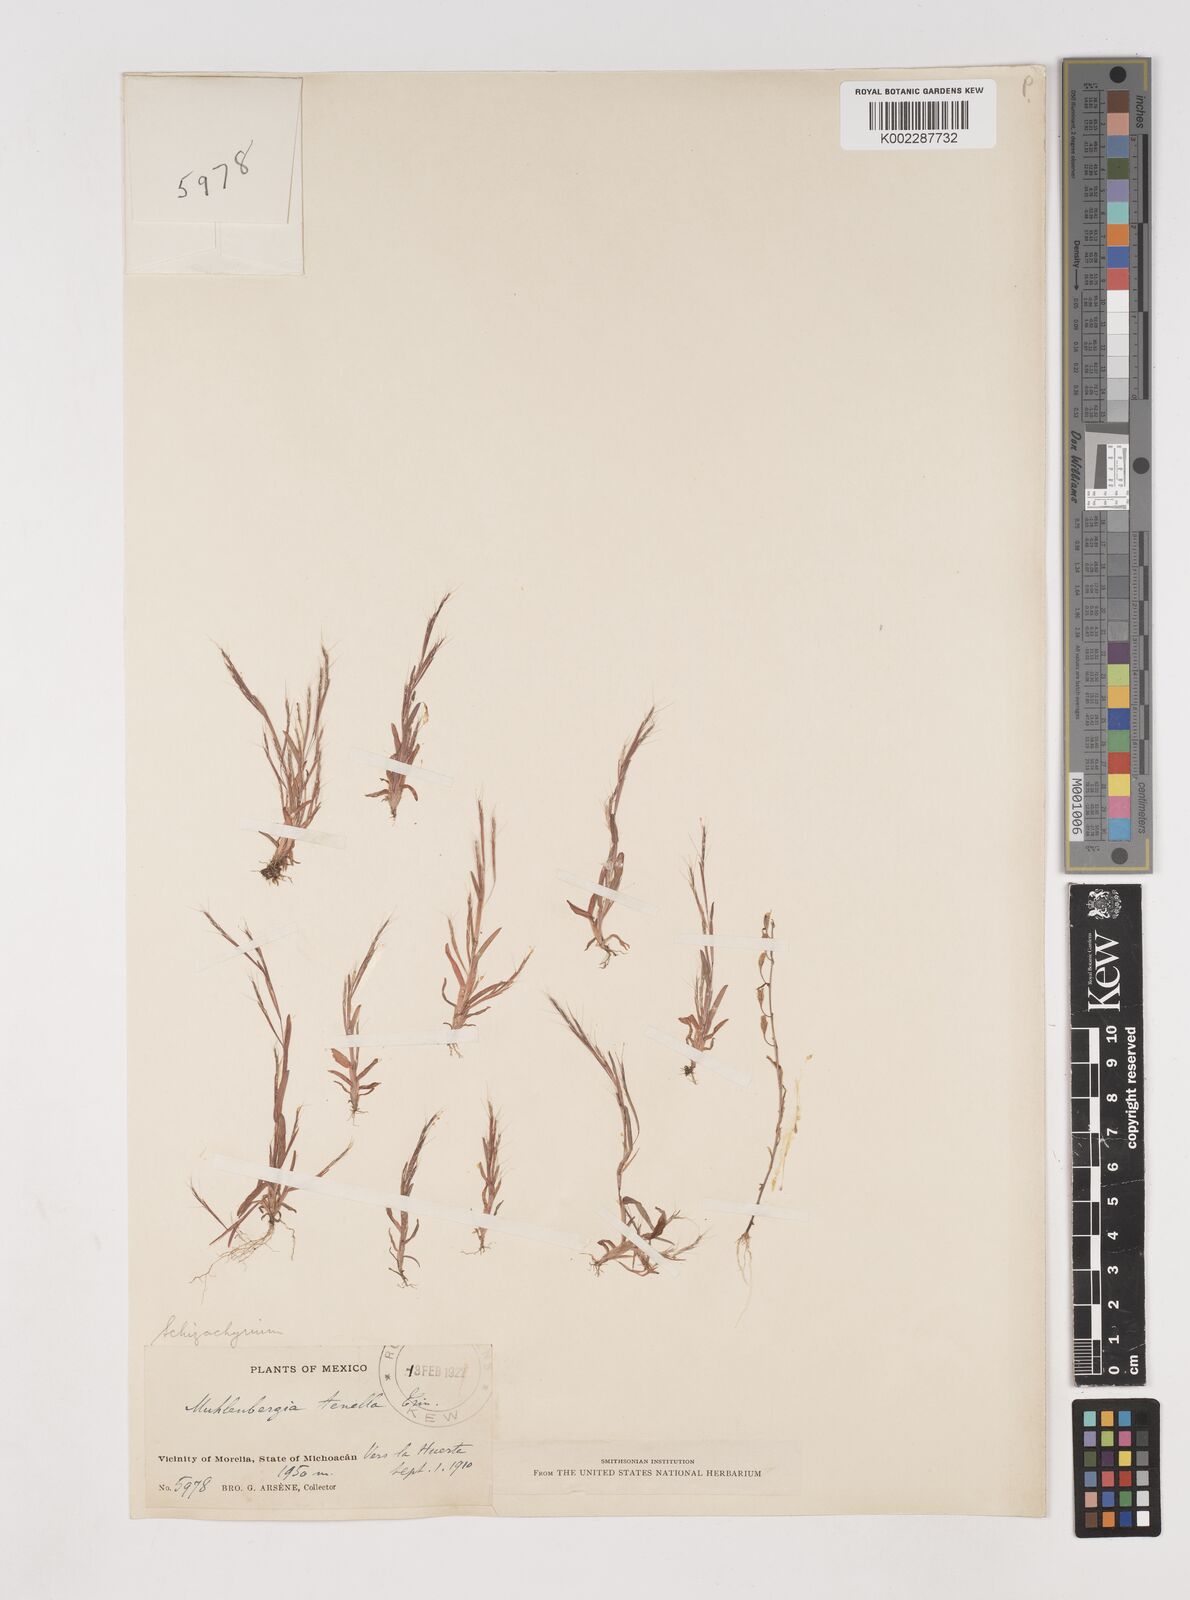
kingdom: Plantae
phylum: Tracheophyta
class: Liliopsida
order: Poales
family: Poaceae
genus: Schizachyrium
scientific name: Schizachyrium brevifolium
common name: Serillo dulce
